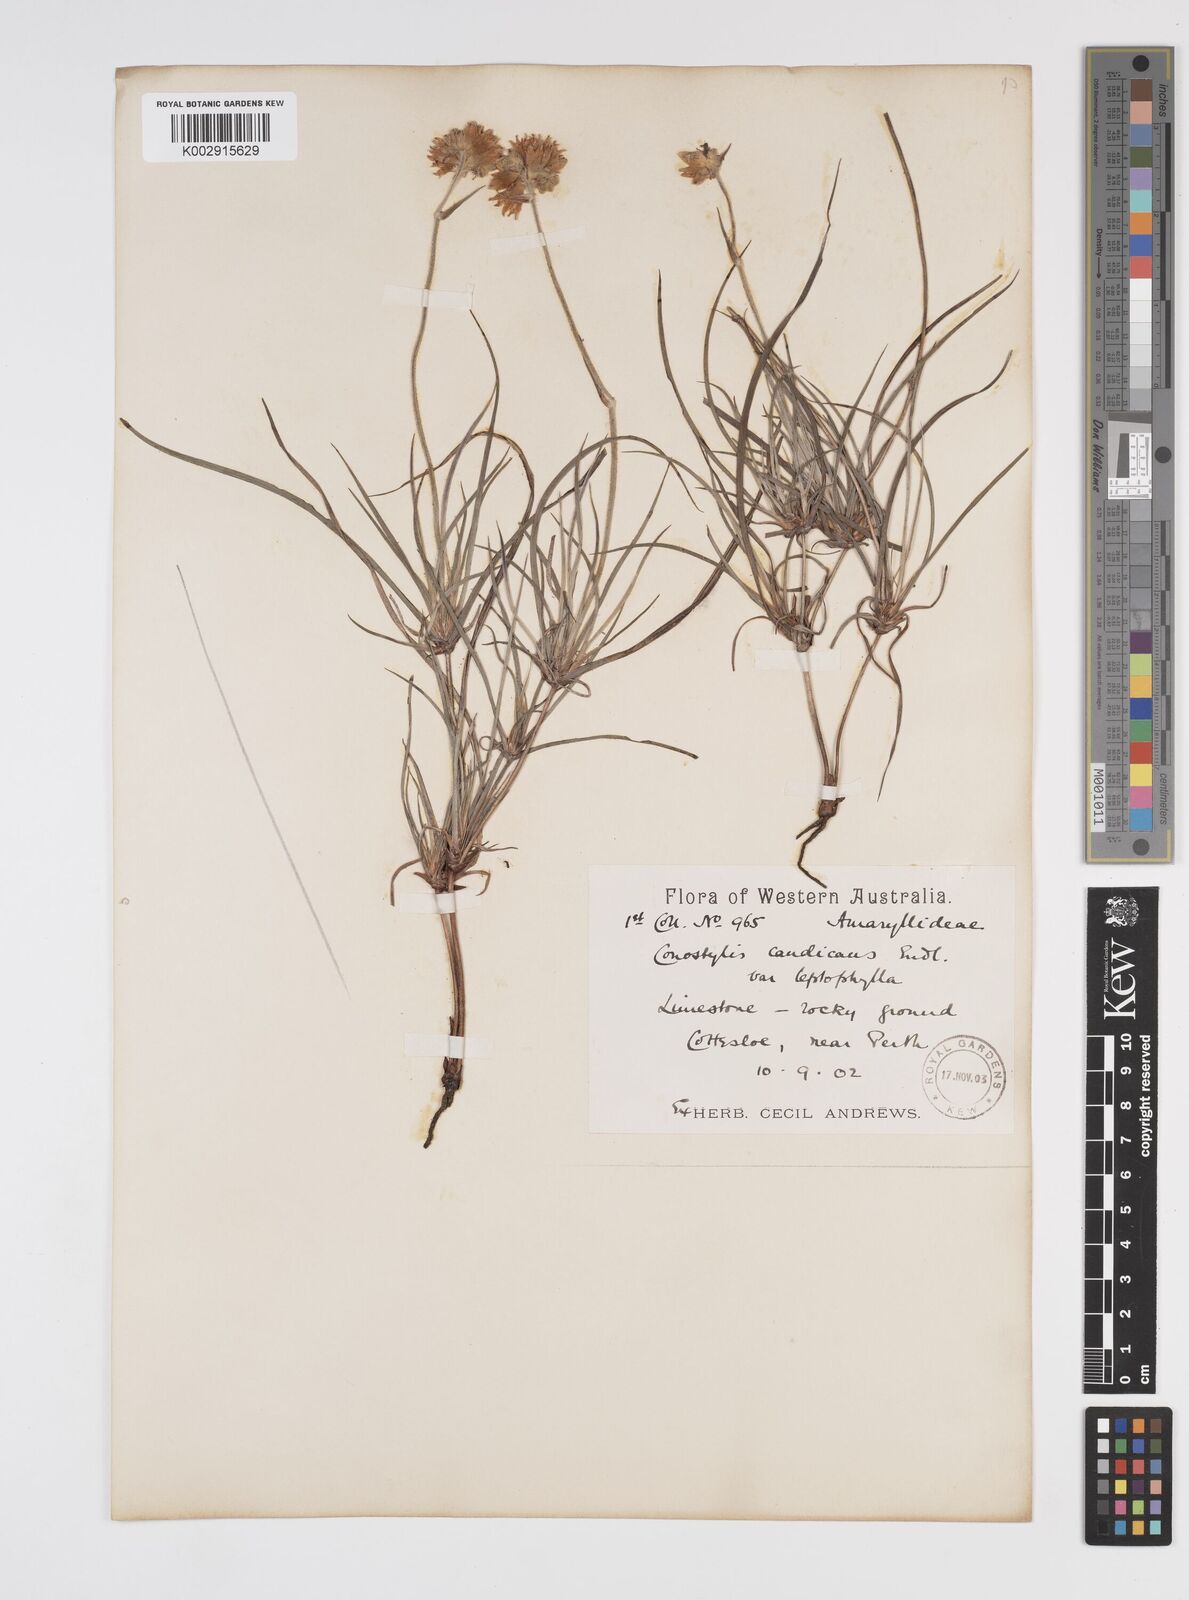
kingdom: Plantae
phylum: Tracheophyta
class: Liliopsida
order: Commelinales
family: Haemodoraceae
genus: Conostylis
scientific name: Conostylis candicans
